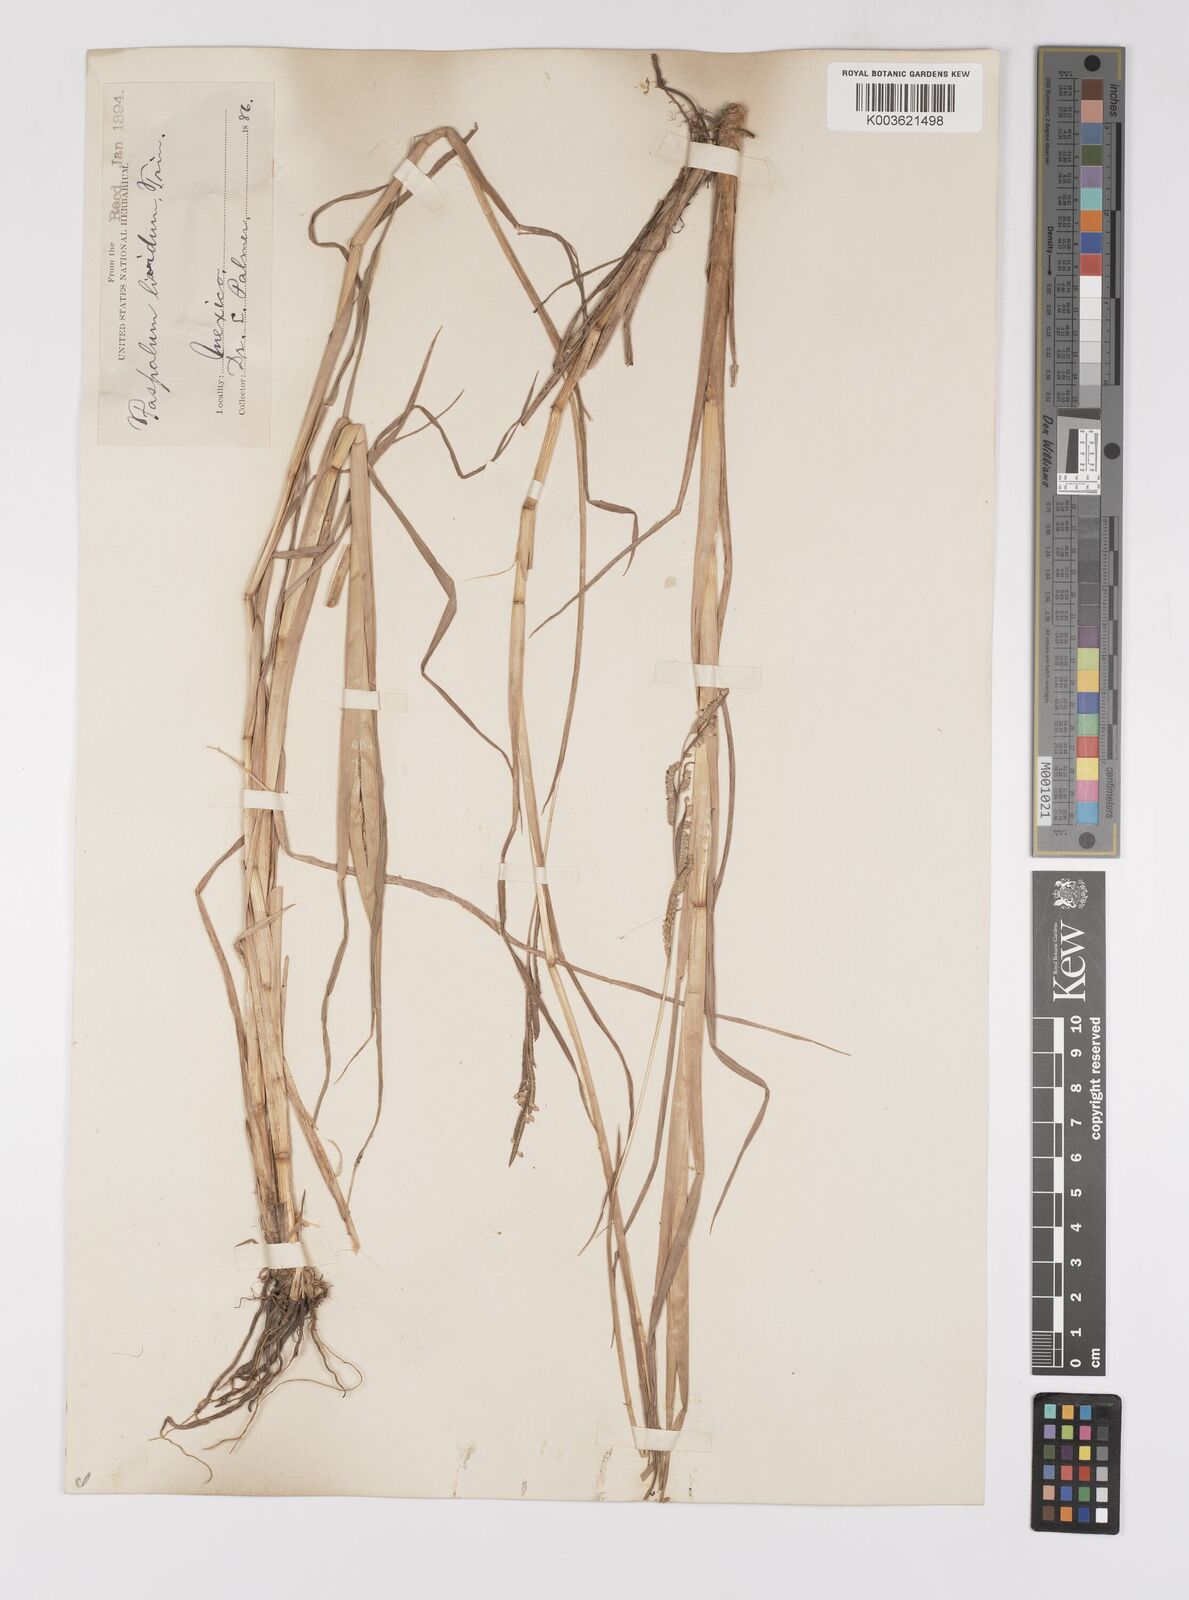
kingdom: Plantae
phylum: Tracheophyta
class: Liliopsida
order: Poales
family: Poaceae
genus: Paspalum
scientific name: Paspalum denticulatum
